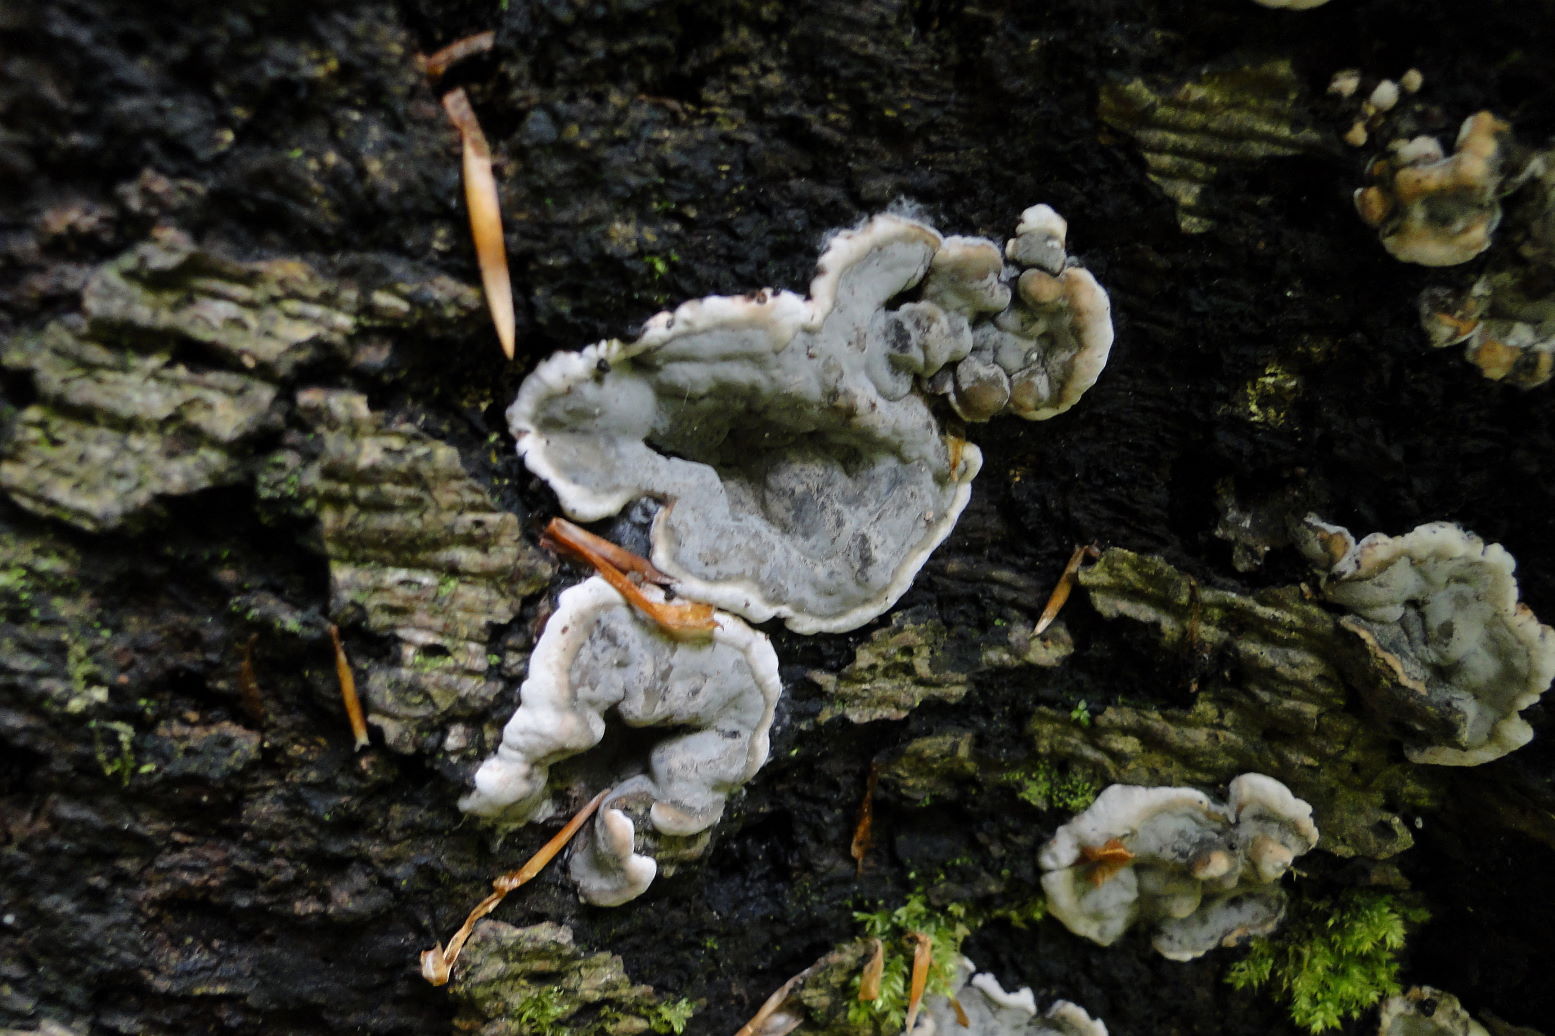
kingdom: Fungi
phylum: Ascomycota
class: Sordariomycetes
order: Xylariales
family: Xylariaceae
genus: Kretzschmaria
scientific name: Kretzschmaria deusta
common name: stor kulsvamp
